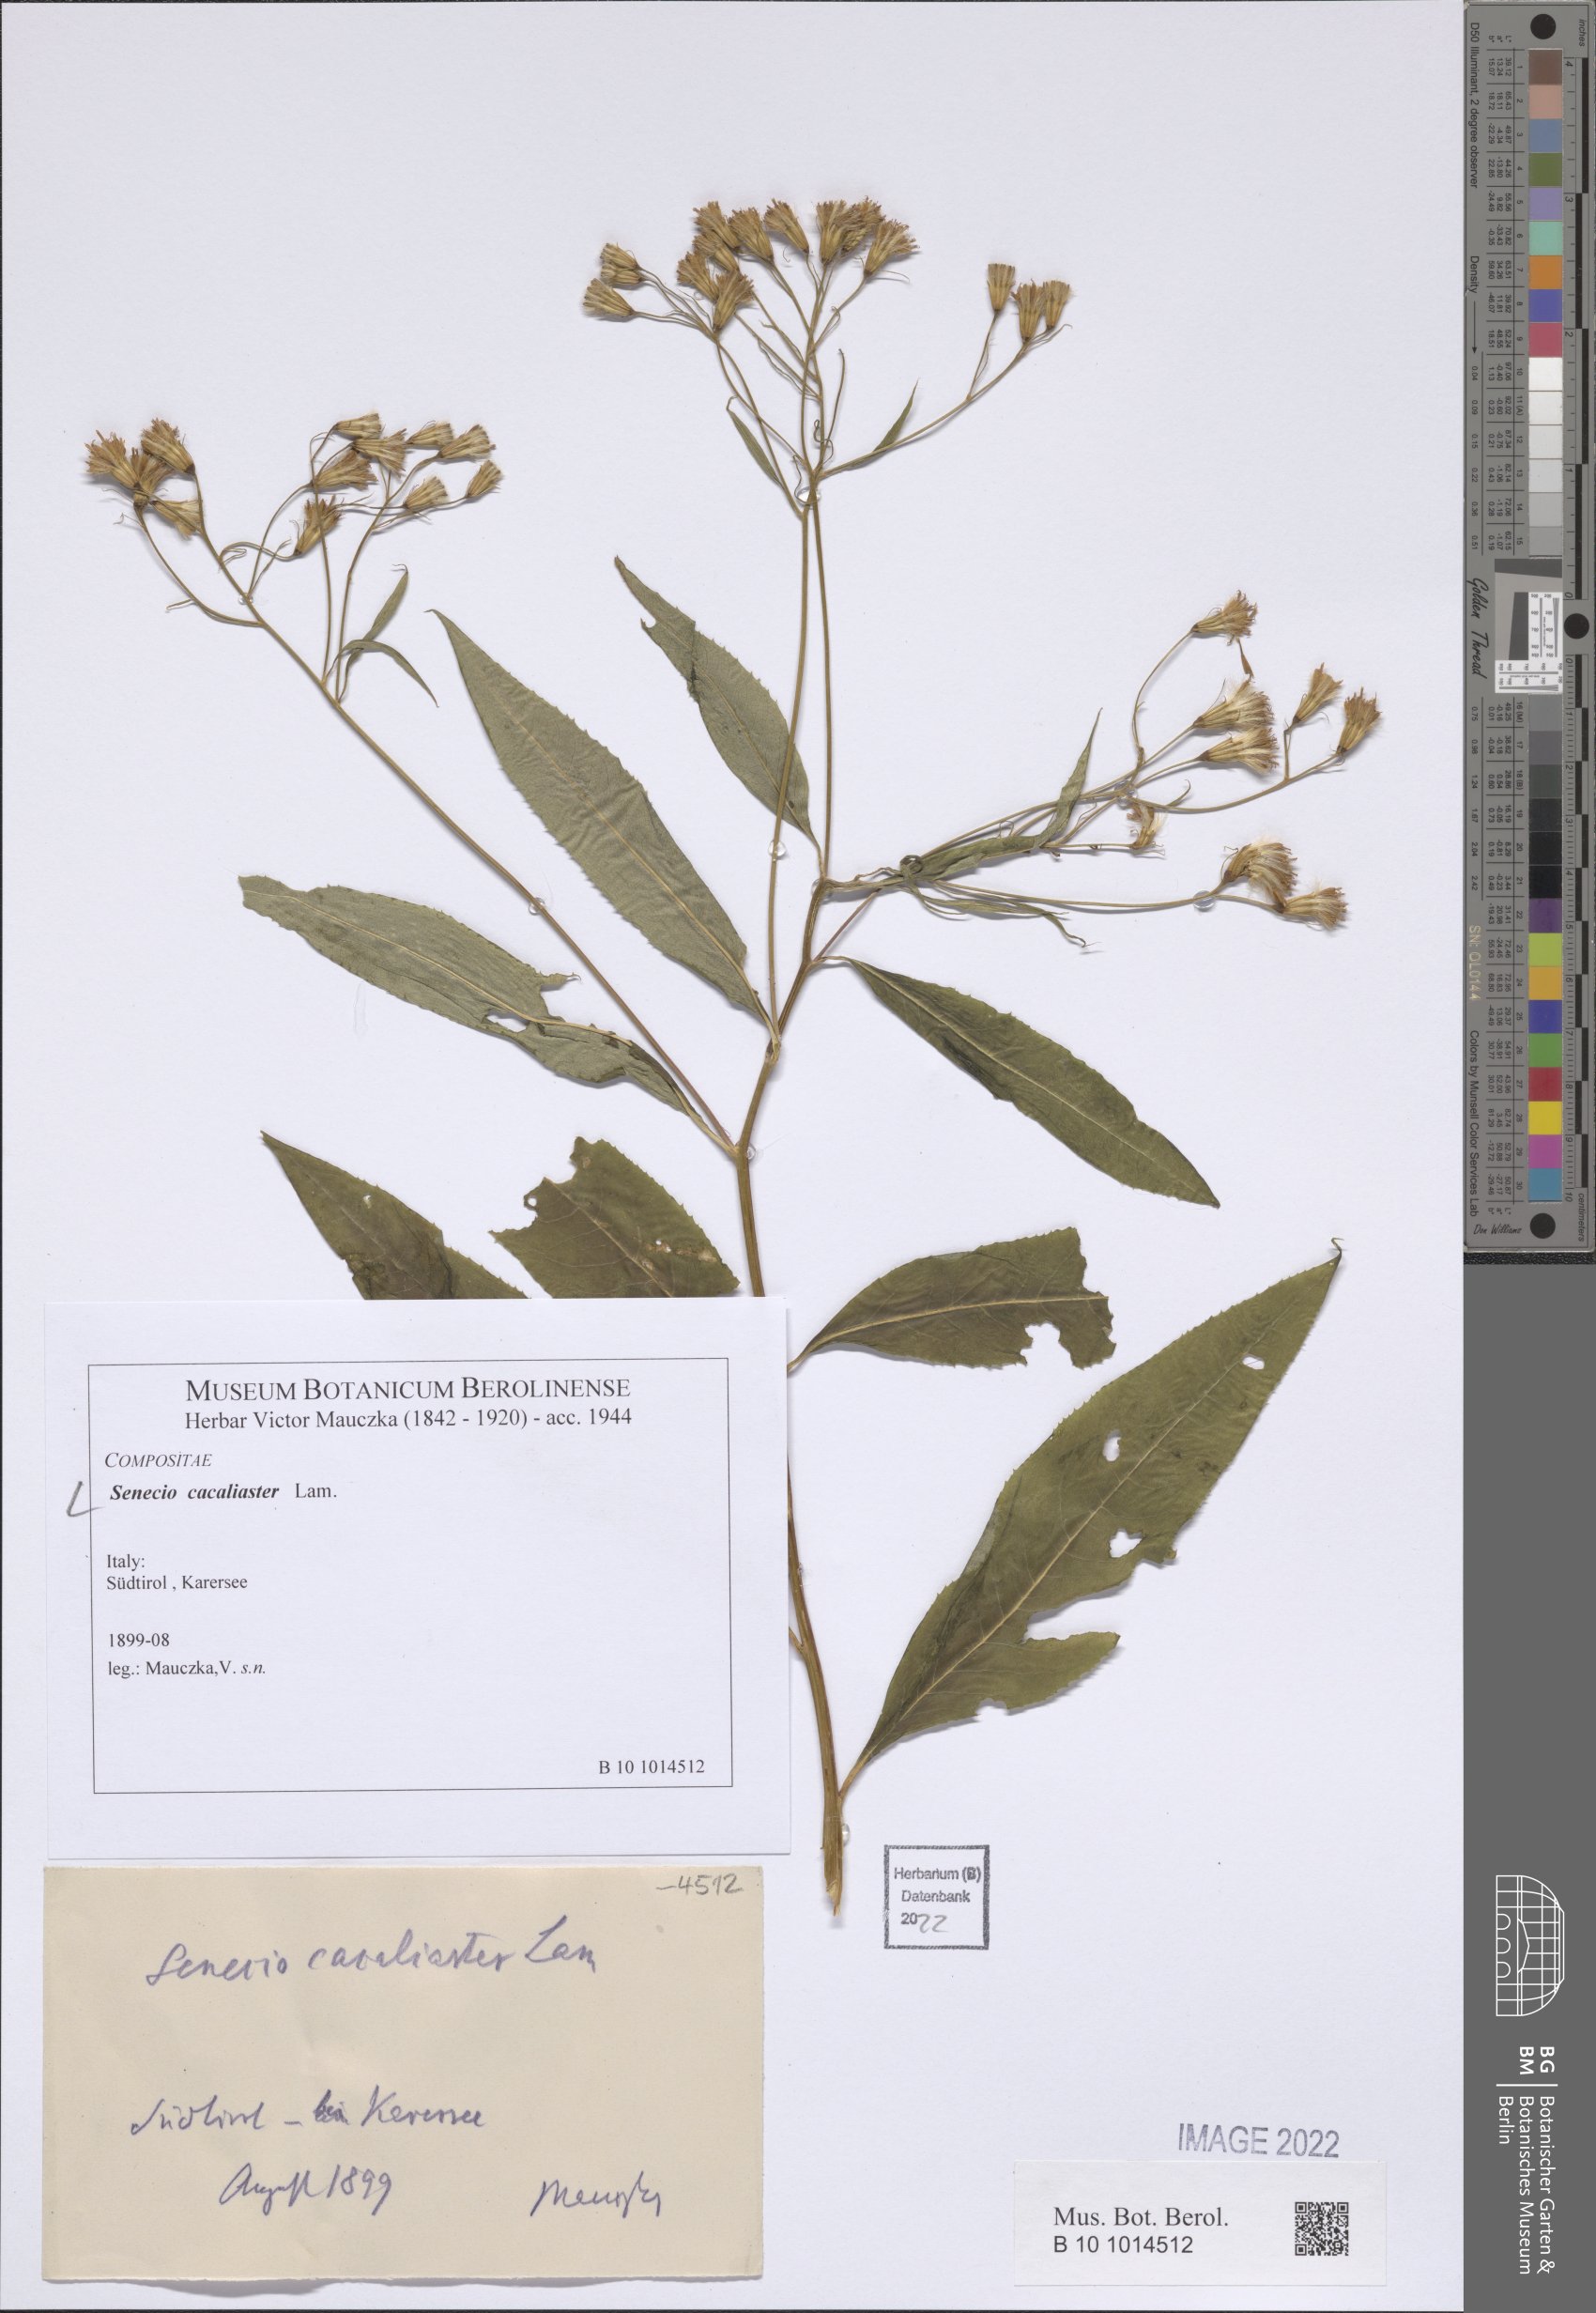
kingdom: Plantae
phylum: Tracheophyta
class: Magnoliopsida
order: Asterales
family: Asteraceae
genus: Senecio
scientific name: Senecio cacaliaster
